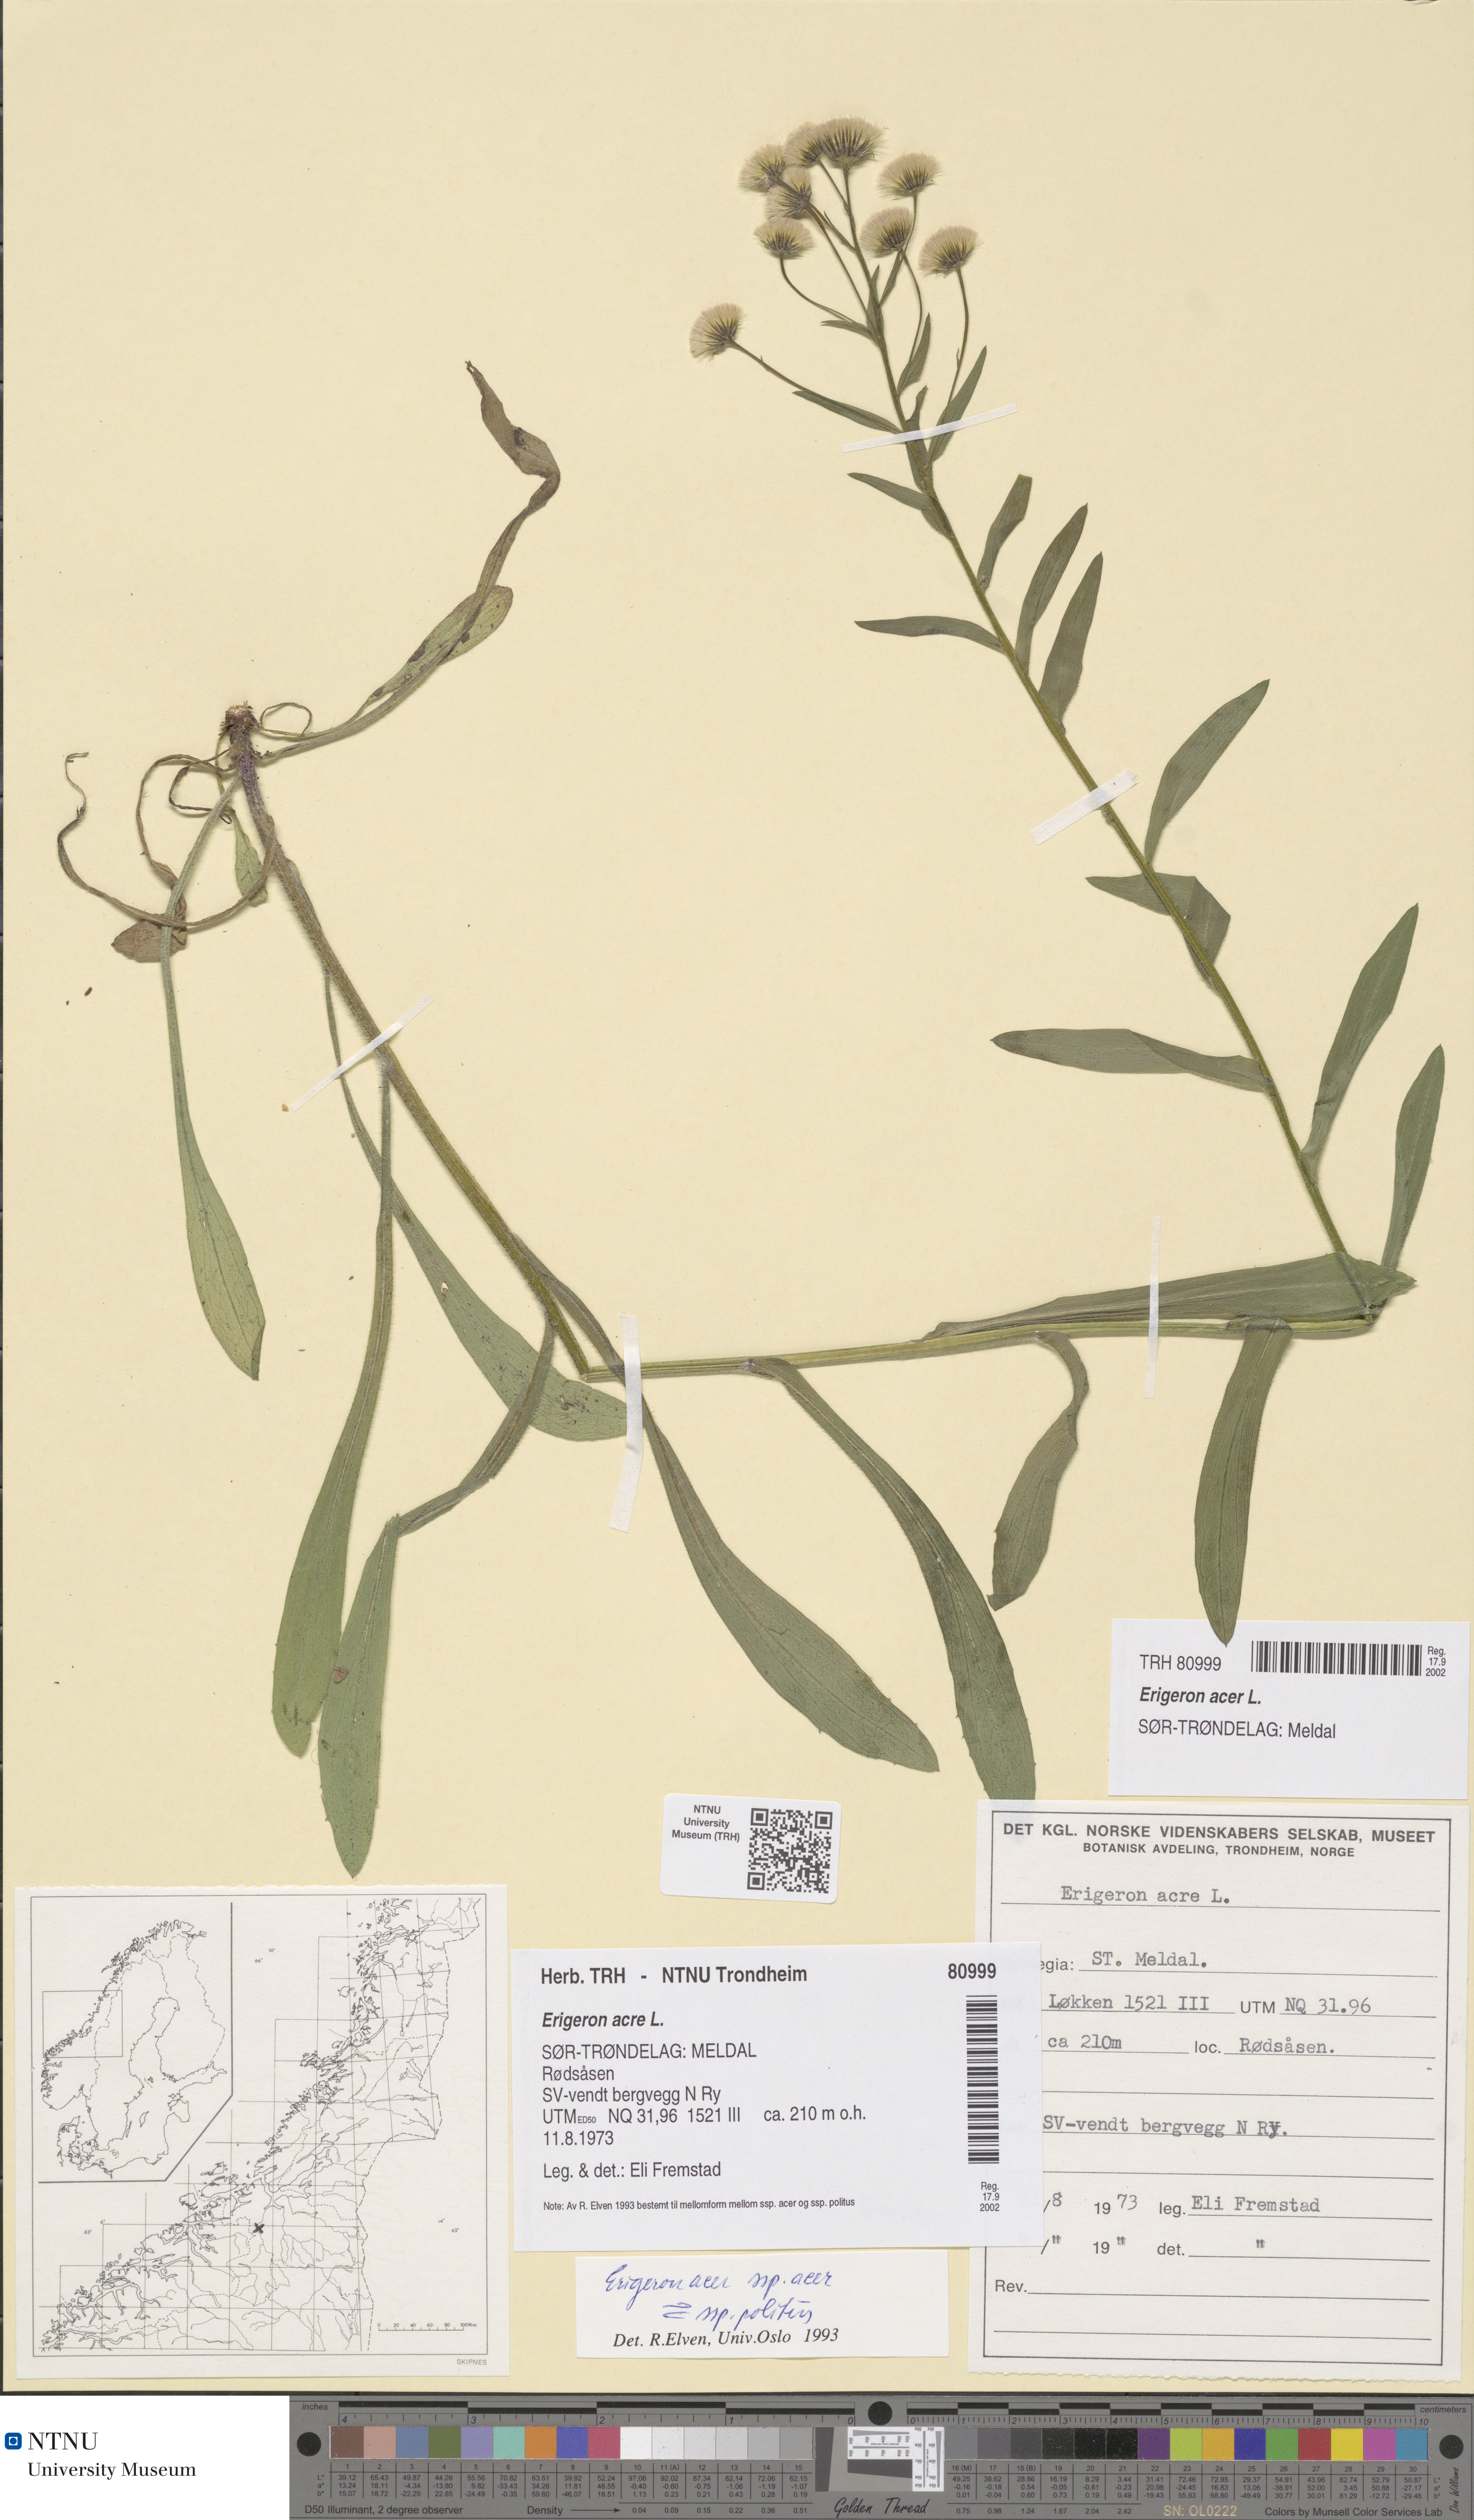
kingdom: Plantae
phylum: Tracheophyta
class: Magnoliopsida
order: Asterales
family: Asteraceae
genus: Erigeron
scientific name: Erigeron acris
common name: Blue fleabane
